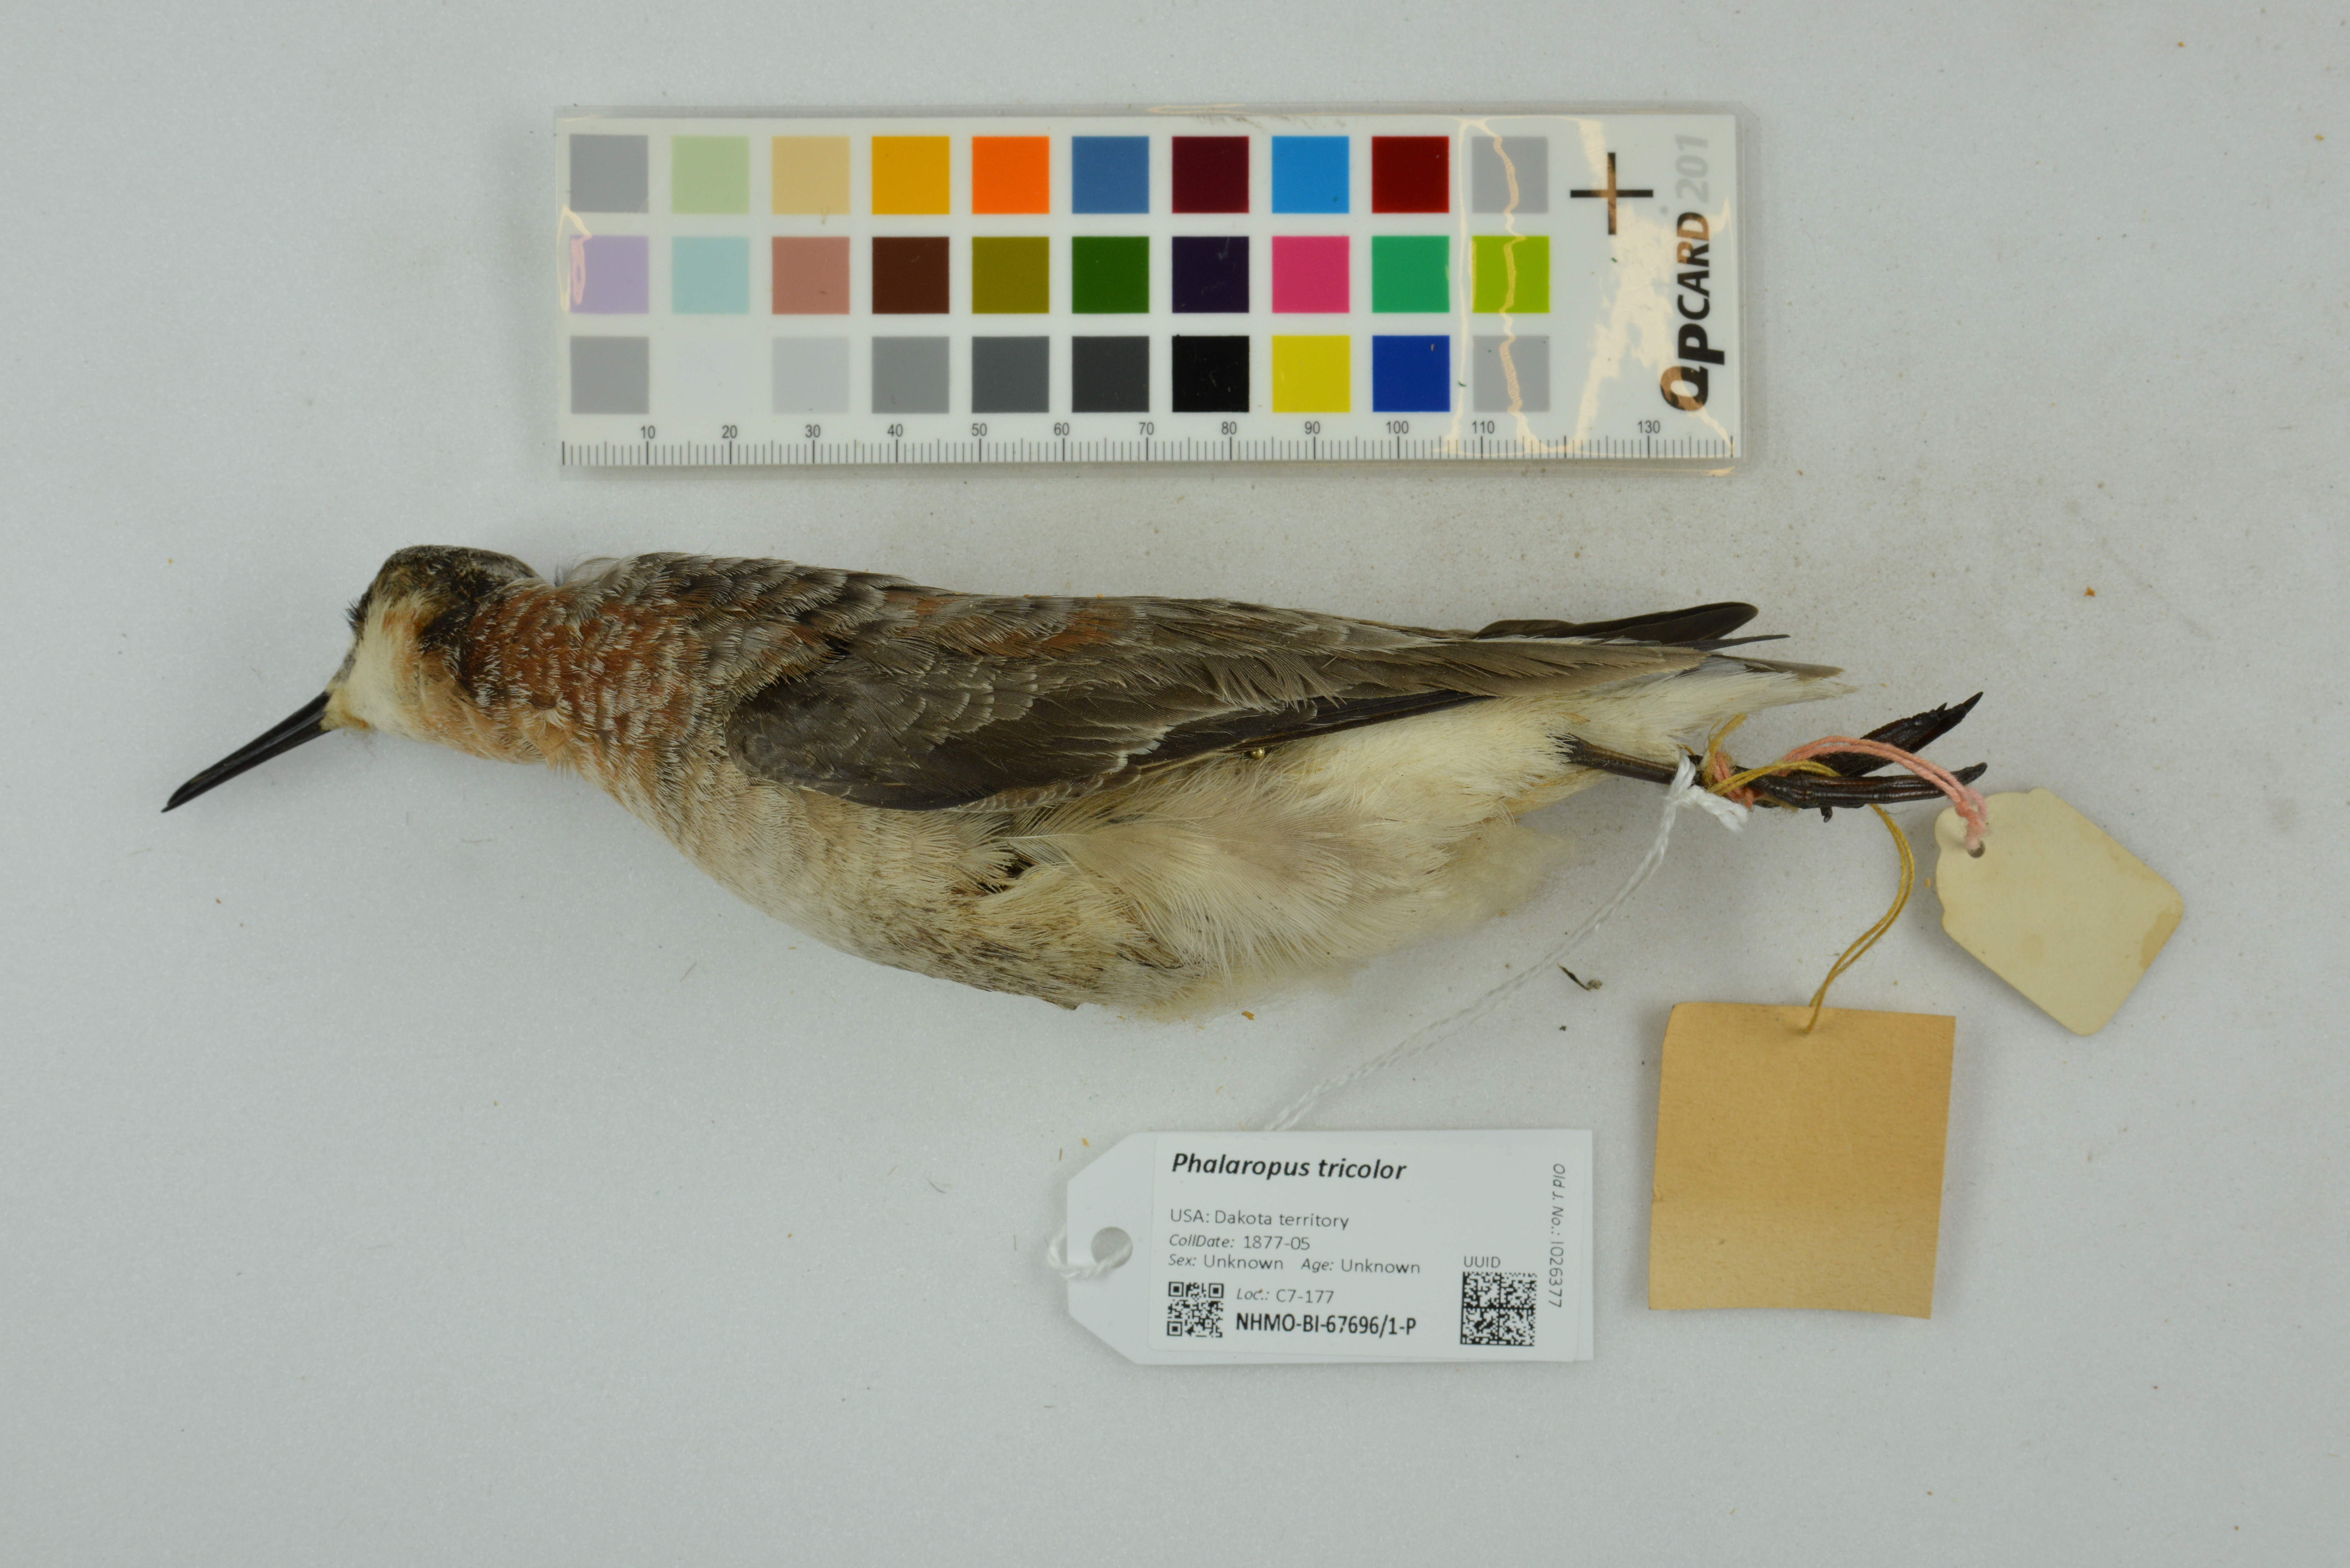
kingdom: Animalia
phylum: Chordata
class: Aves
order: Charadriiformes
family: Scolopacidae
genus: Phalaropus
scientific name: Phalaropus tricolor
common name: Wilson's phalarope
